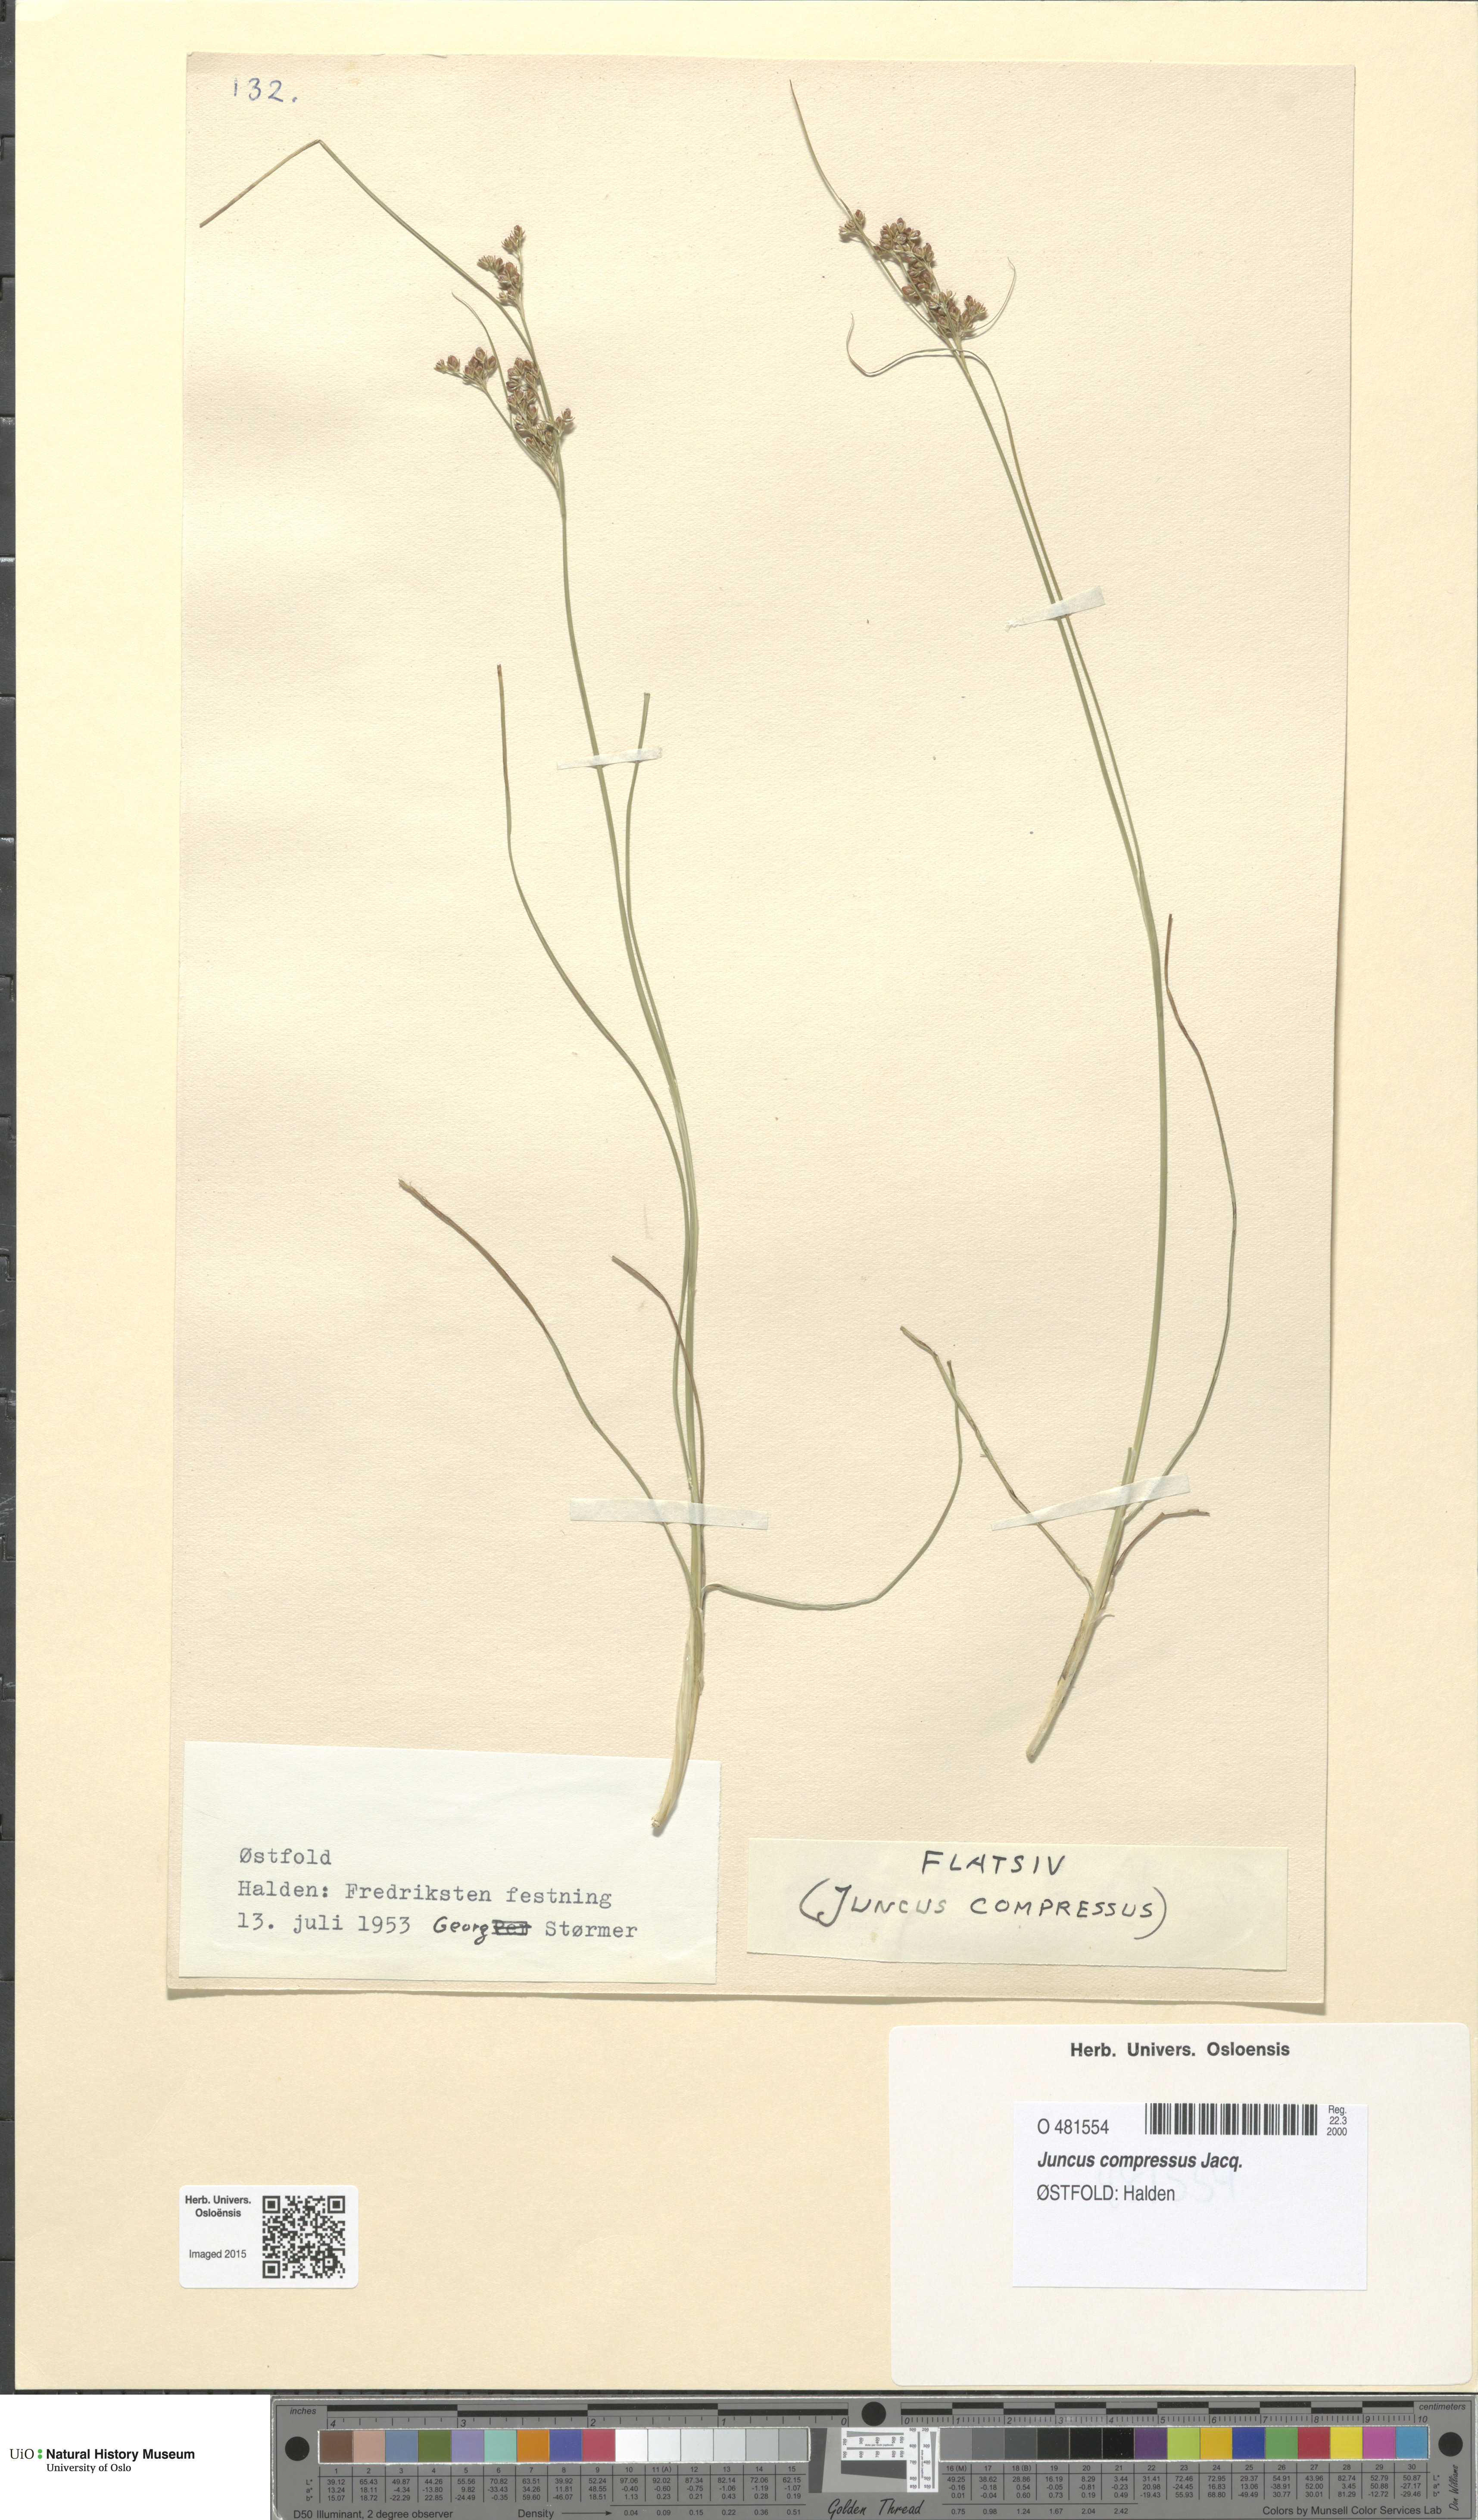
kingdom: Plantae
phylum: Tracheophyta
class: Liliopsida
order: Poales
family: Juncaceae
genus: Juncus
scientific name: Juncus compressus
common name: Round-fruited rush
